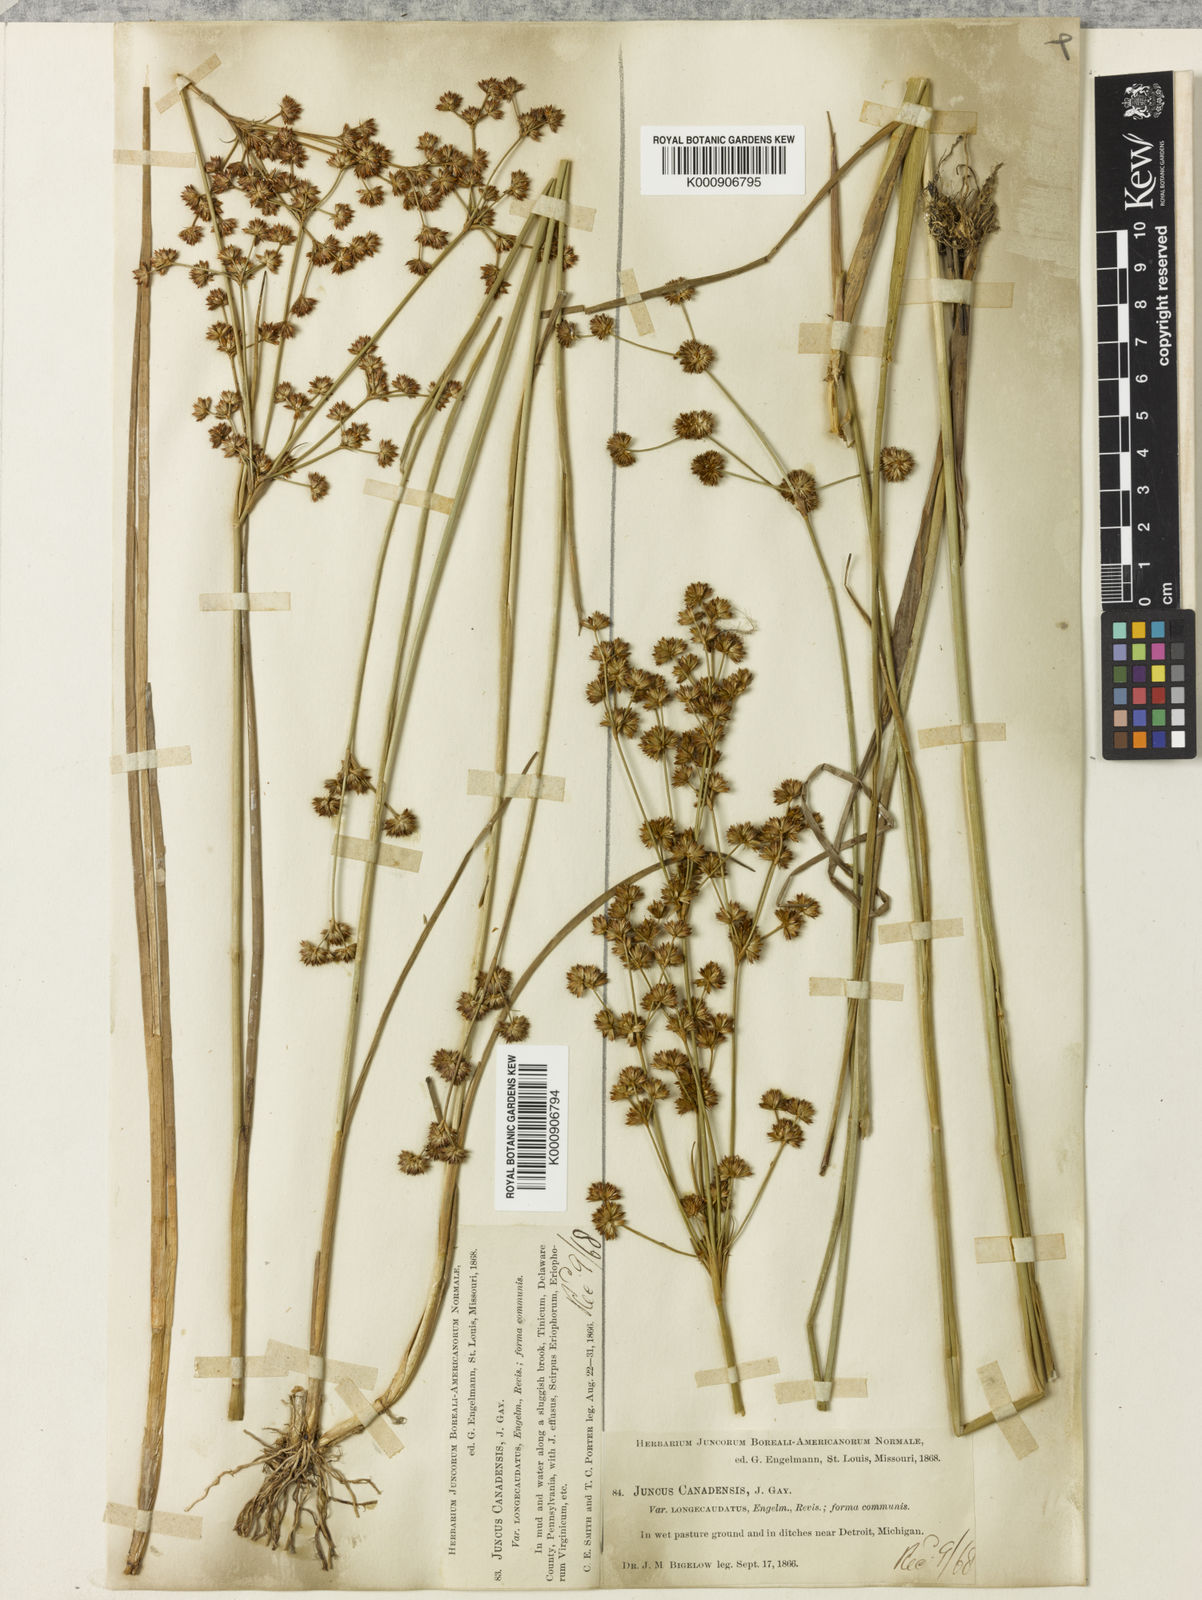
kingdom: Plantae
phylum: Tracheophyta
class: Liliopsida
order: Poales
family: Juncaceae
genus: Juncus
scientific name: Juncus
